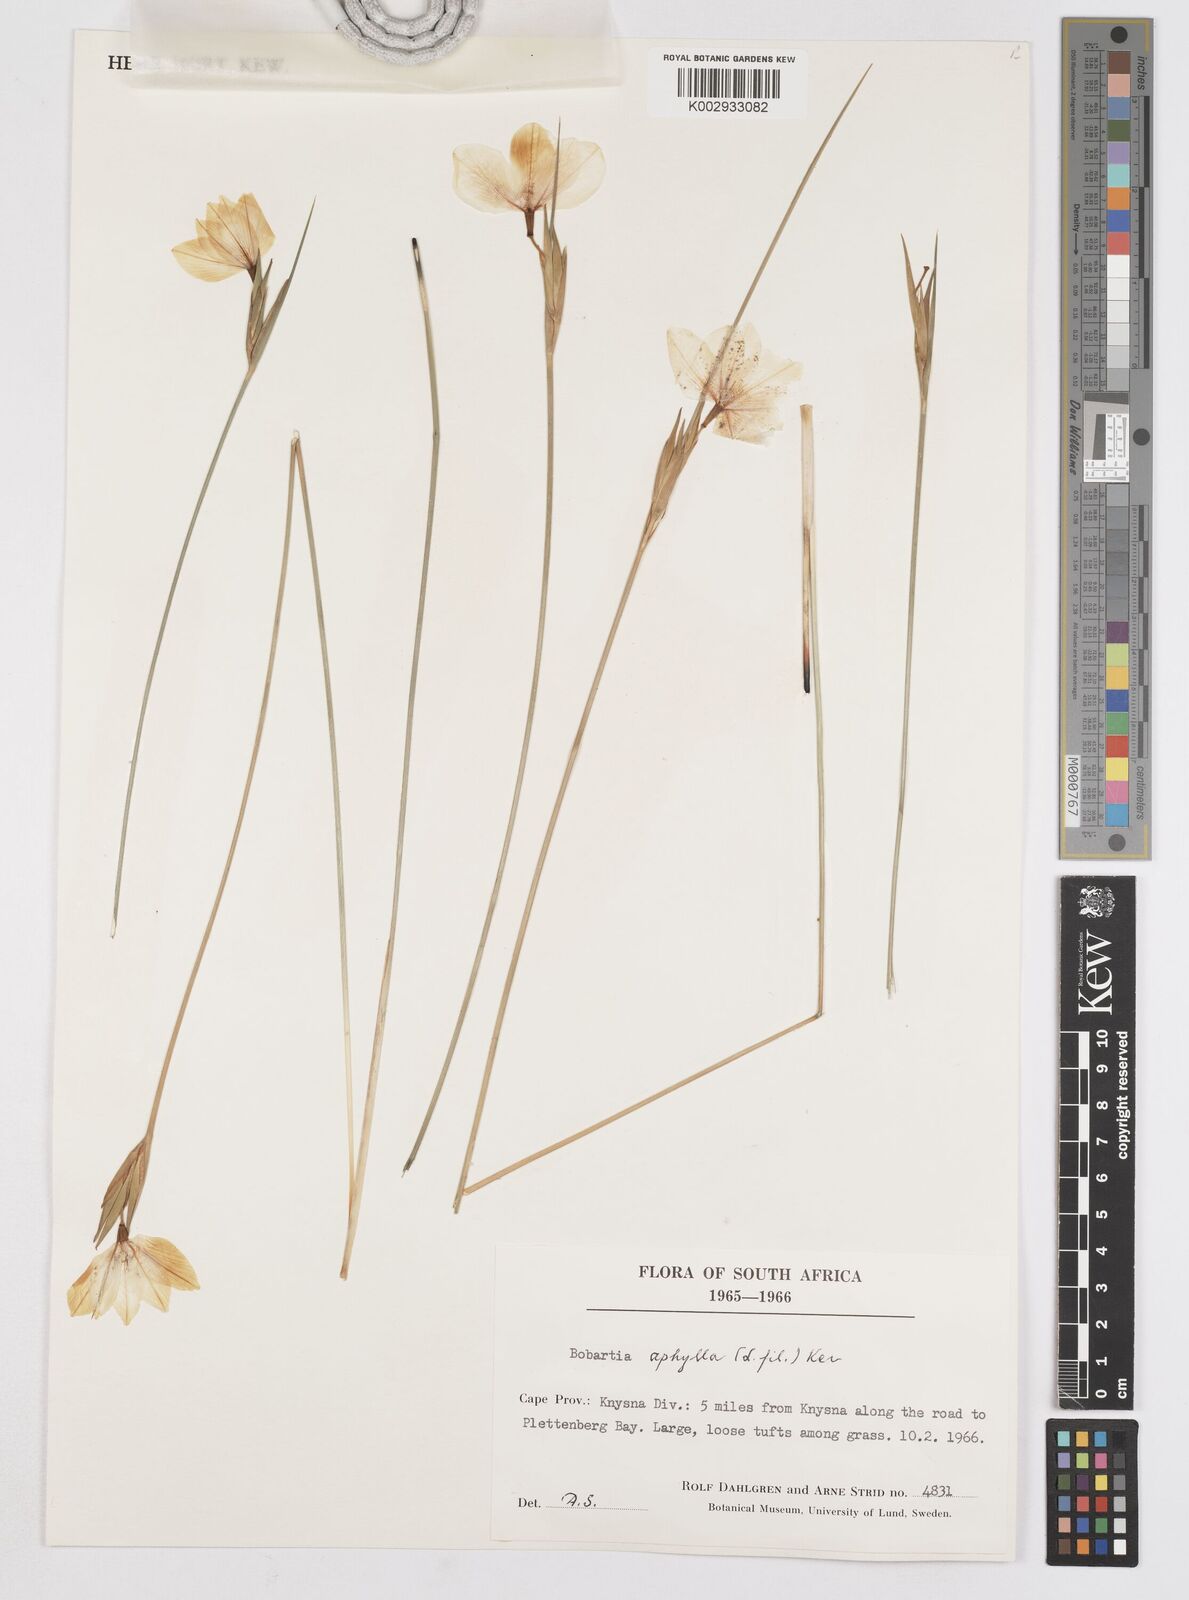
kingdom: Plantae
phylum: Tracheophyta
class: Liliopsida
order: Asparagales
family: Iridaceae
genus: Bobartia
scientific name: Bobartia aphylla
